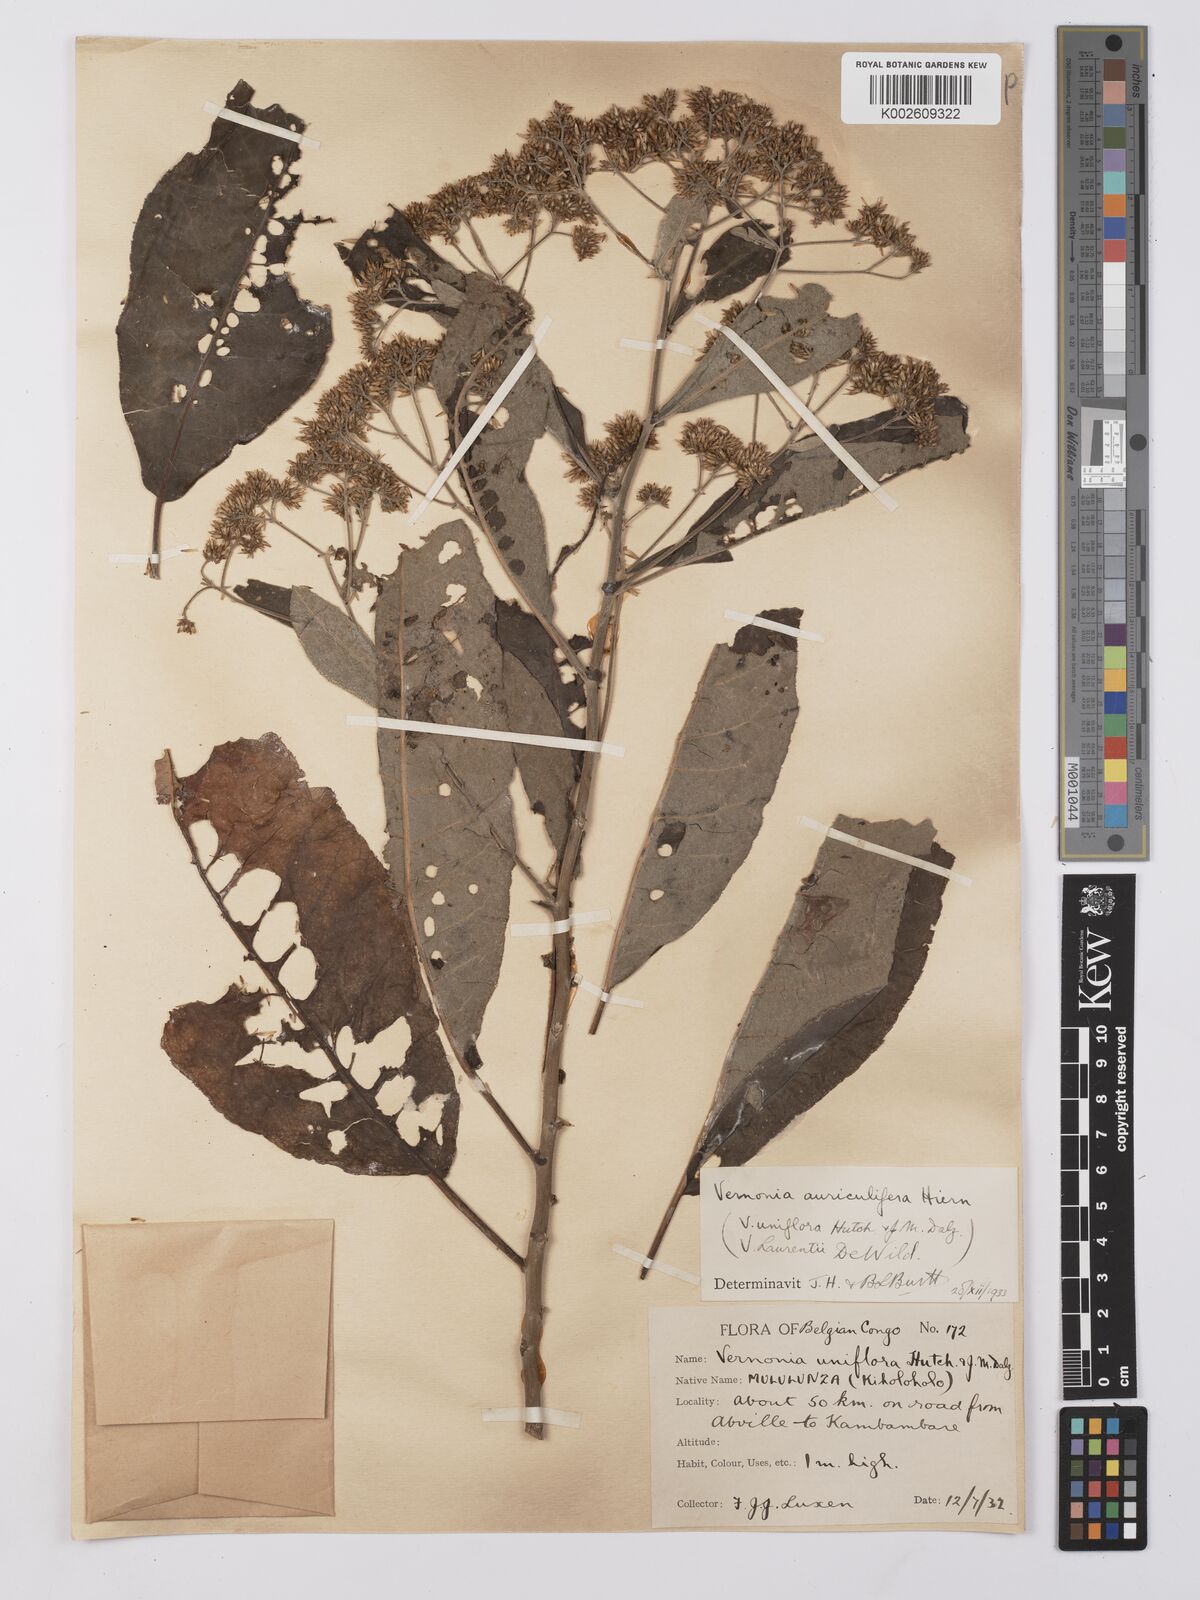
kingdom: Plantae
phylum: Tracheophyta
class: Magnoliopsida
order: Asterales
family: Asteraceae
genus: Gymnanthemum
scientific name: Gymnanthemum auriculiferum
